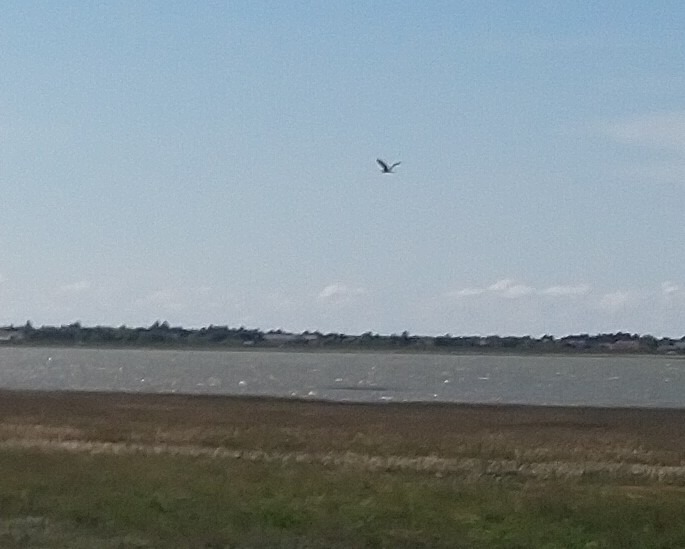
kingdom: Animalia
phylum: Chordata
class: Aves
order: Pelecaniformes
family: Ardeidae
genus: Ardea
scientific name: Ardea cinerea
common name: Fiskehejre
